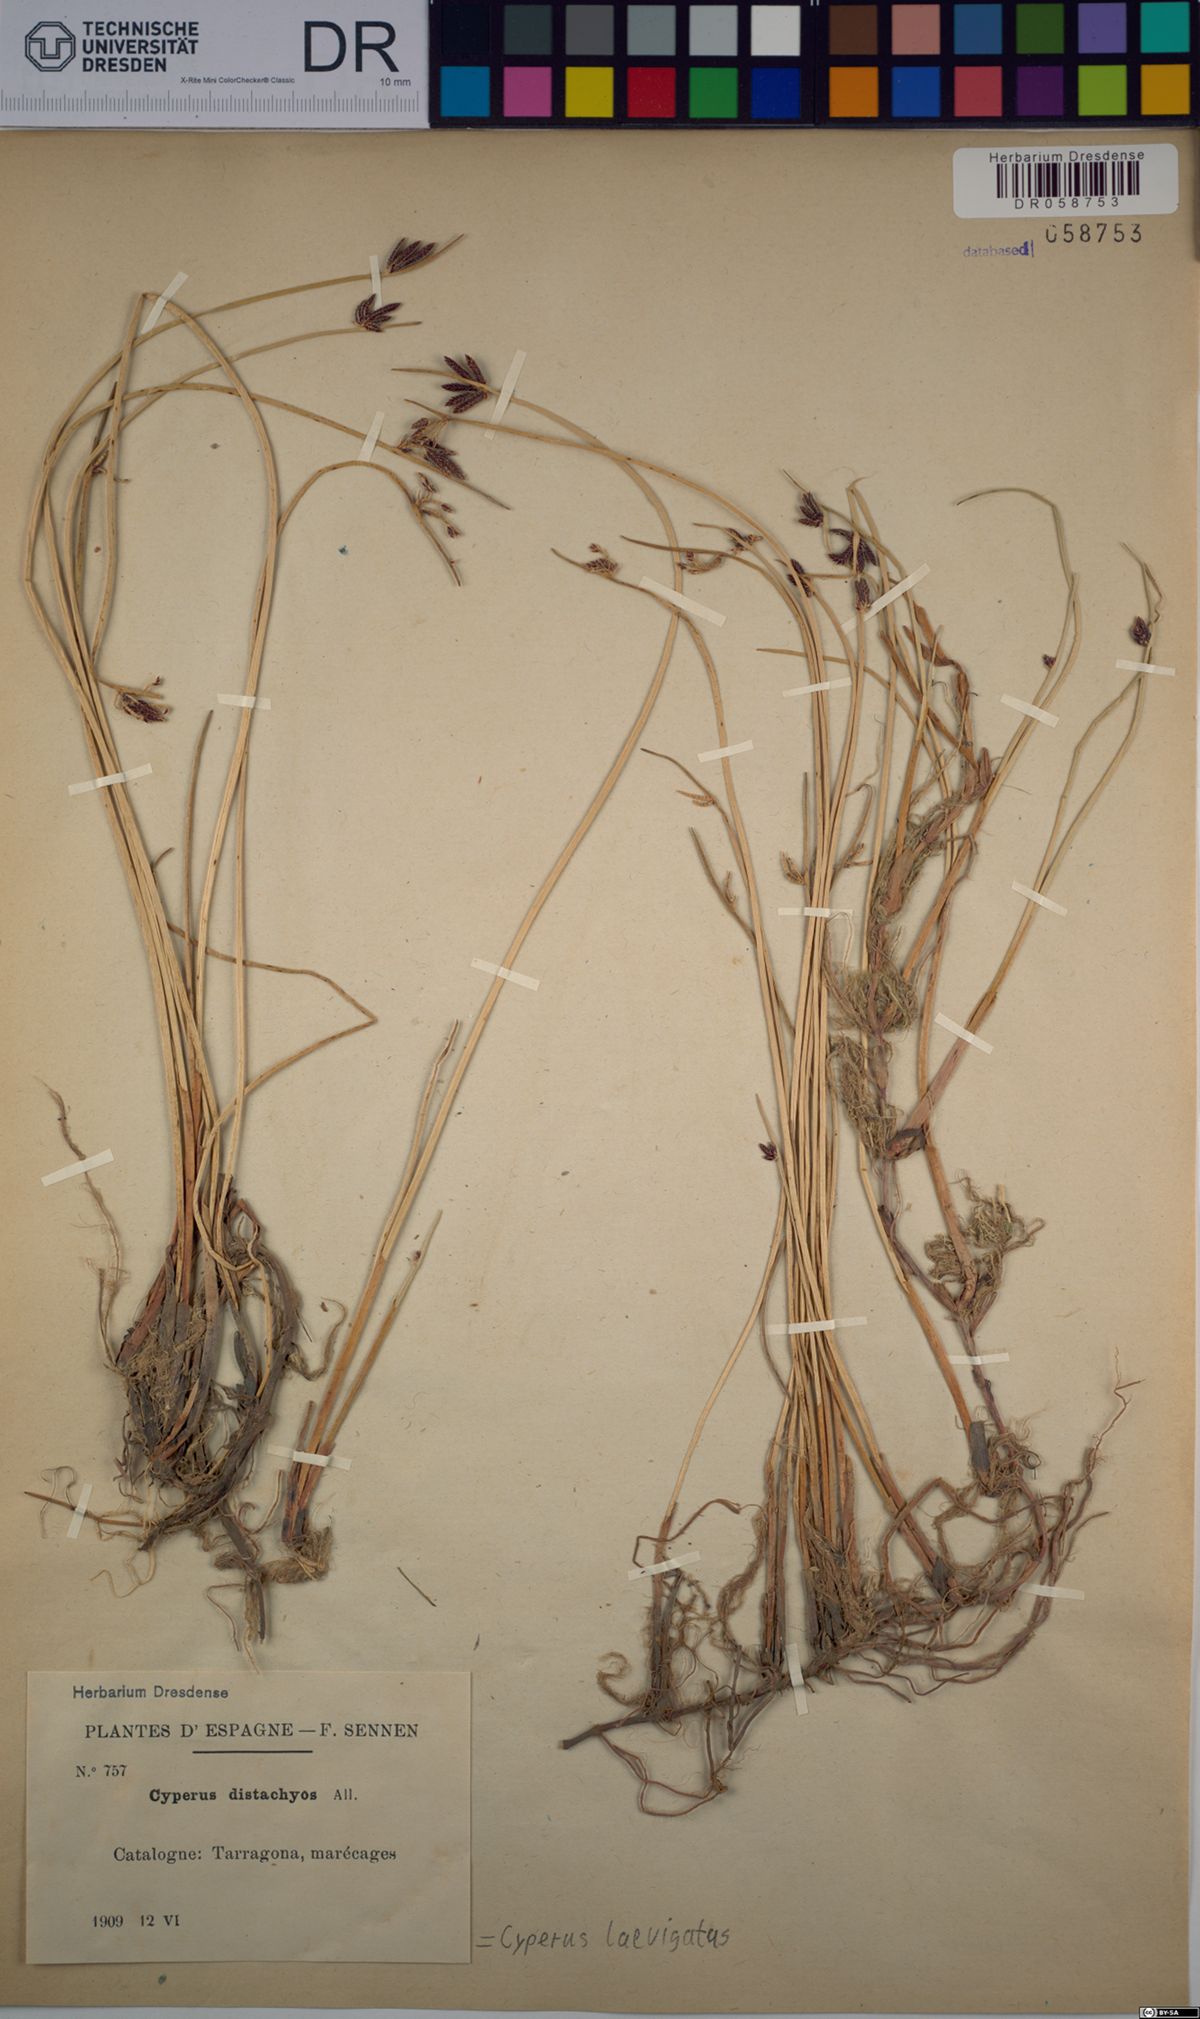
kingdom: Plantae
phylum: Tracheophyta
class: Liliopsida
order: Poales
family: Cyperaceae
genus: Cyperus
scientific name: Cyperus laevigatus
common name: Smooth flat sedge
